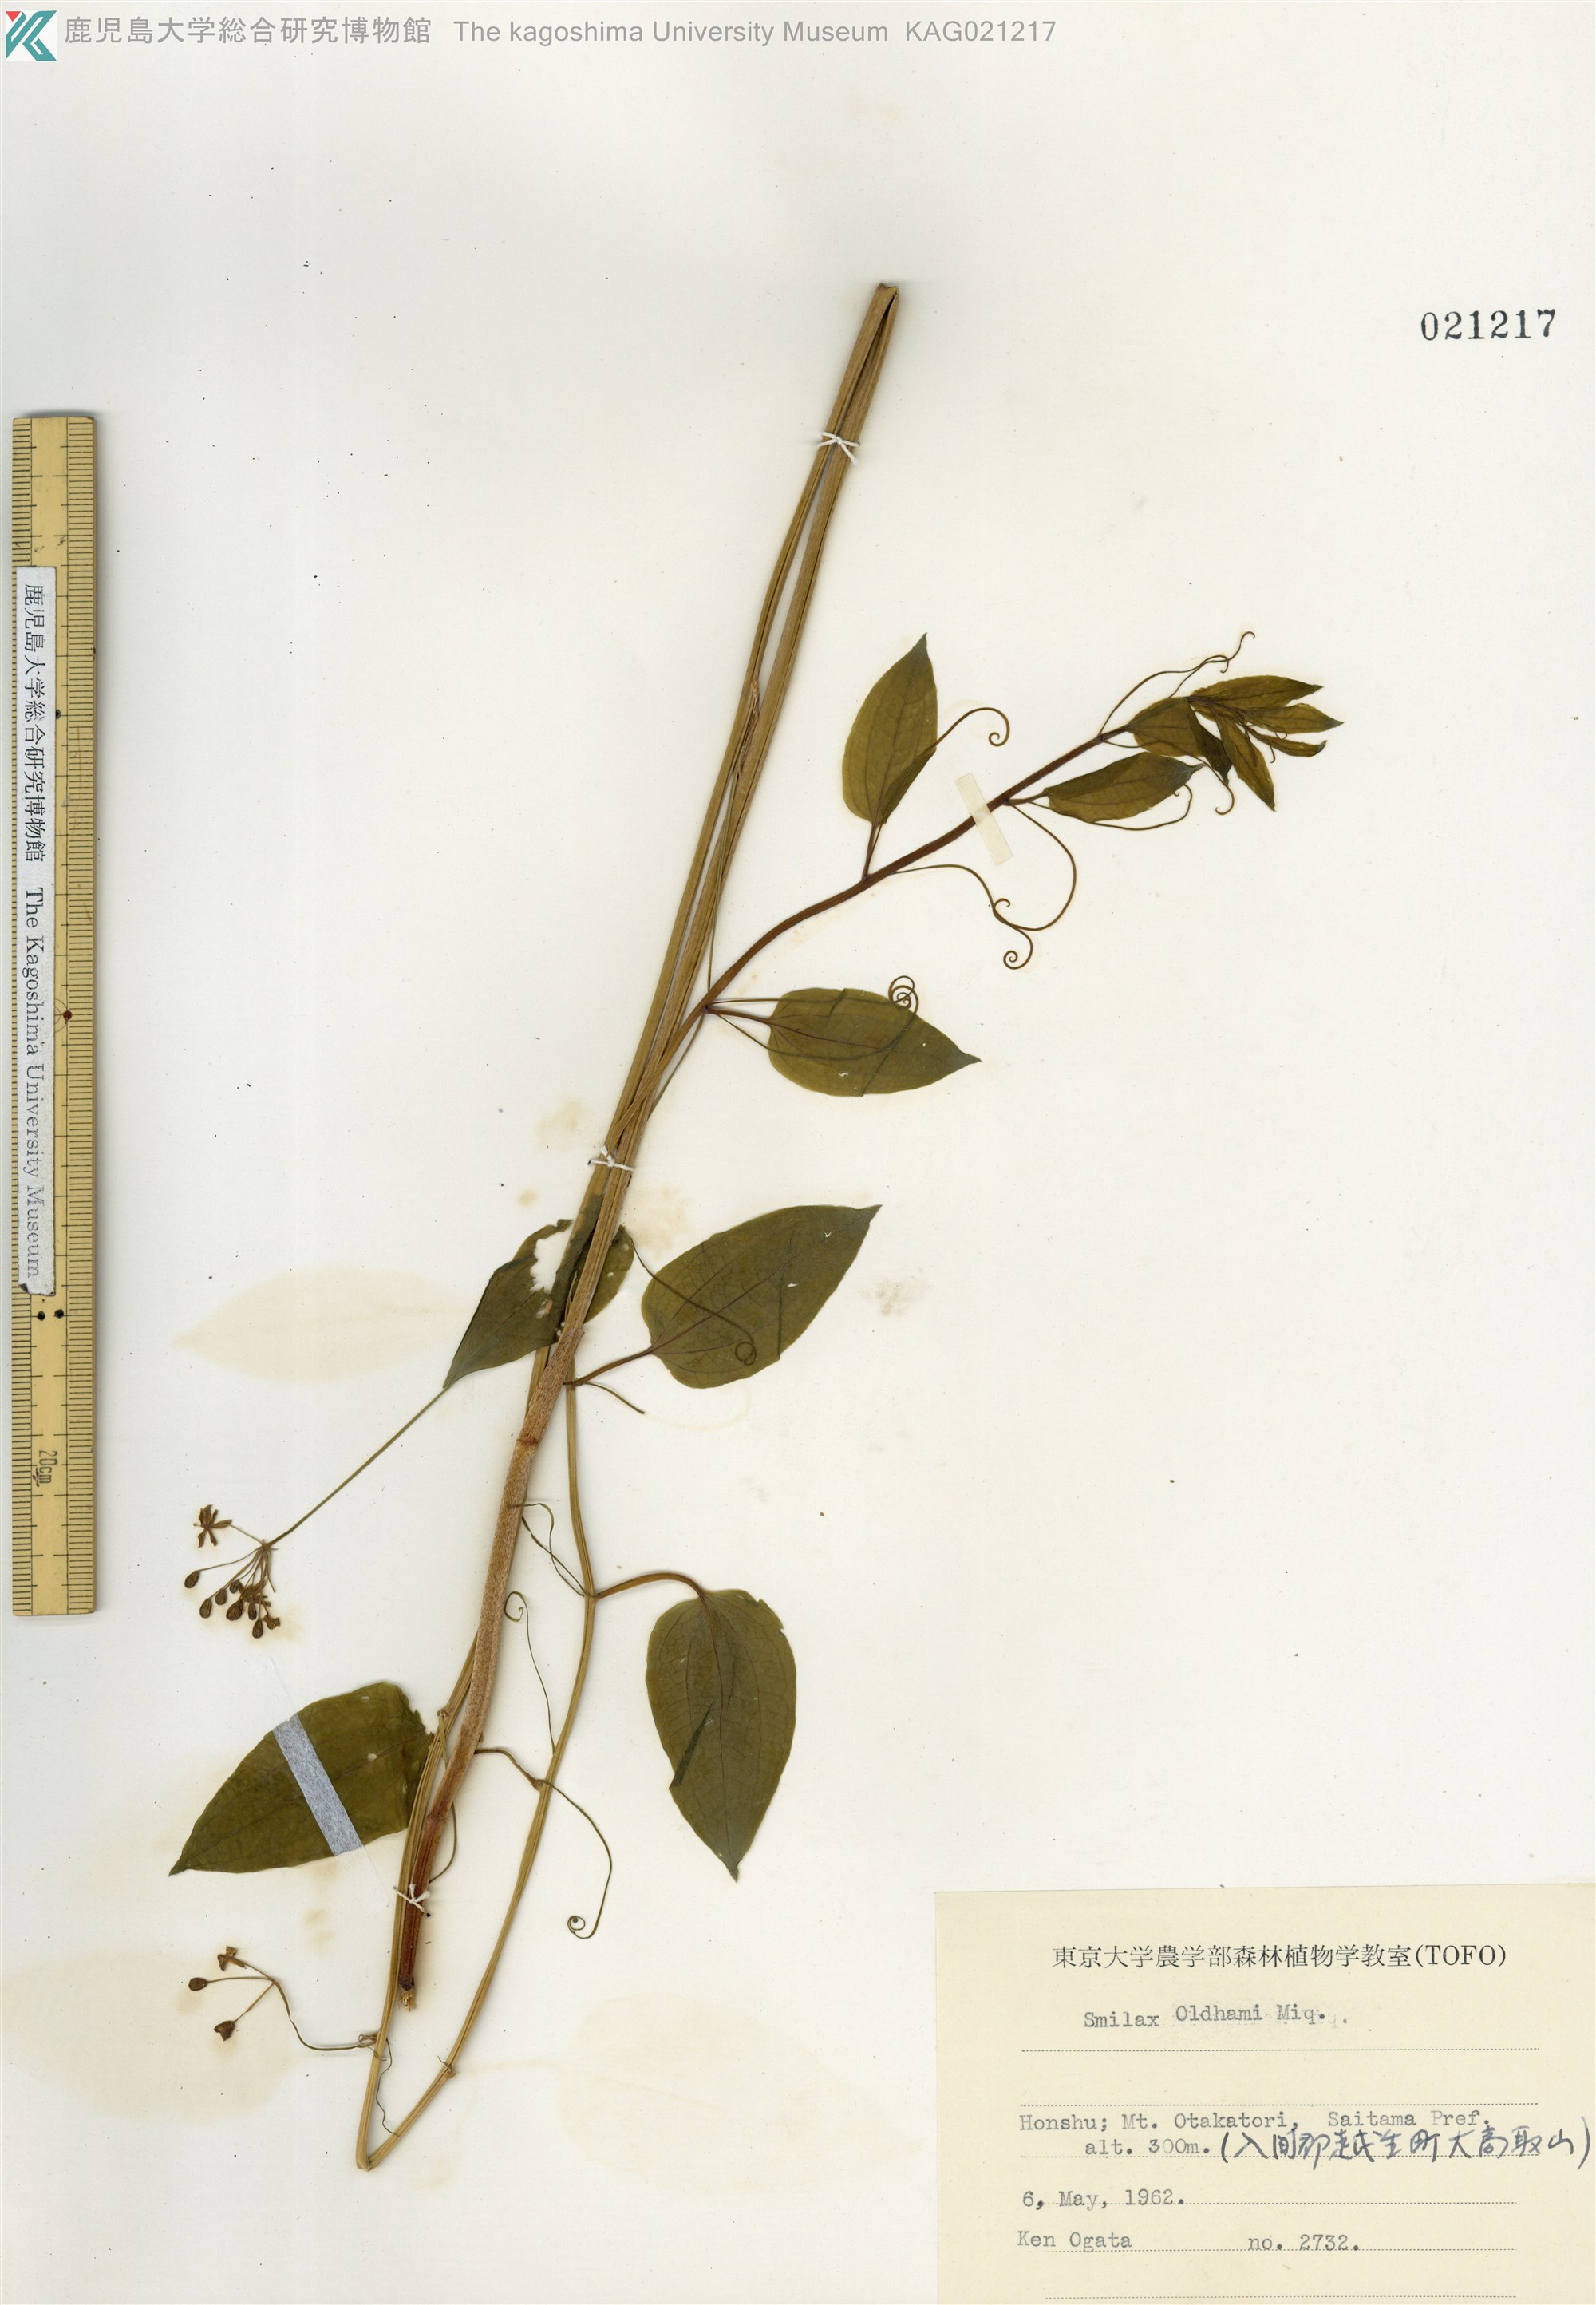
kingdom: Plantae
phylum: Tracheophyta
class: Liliopsida
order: Liliales
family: Smilacaceae
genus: Smilax
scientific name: Smilax nipponica
